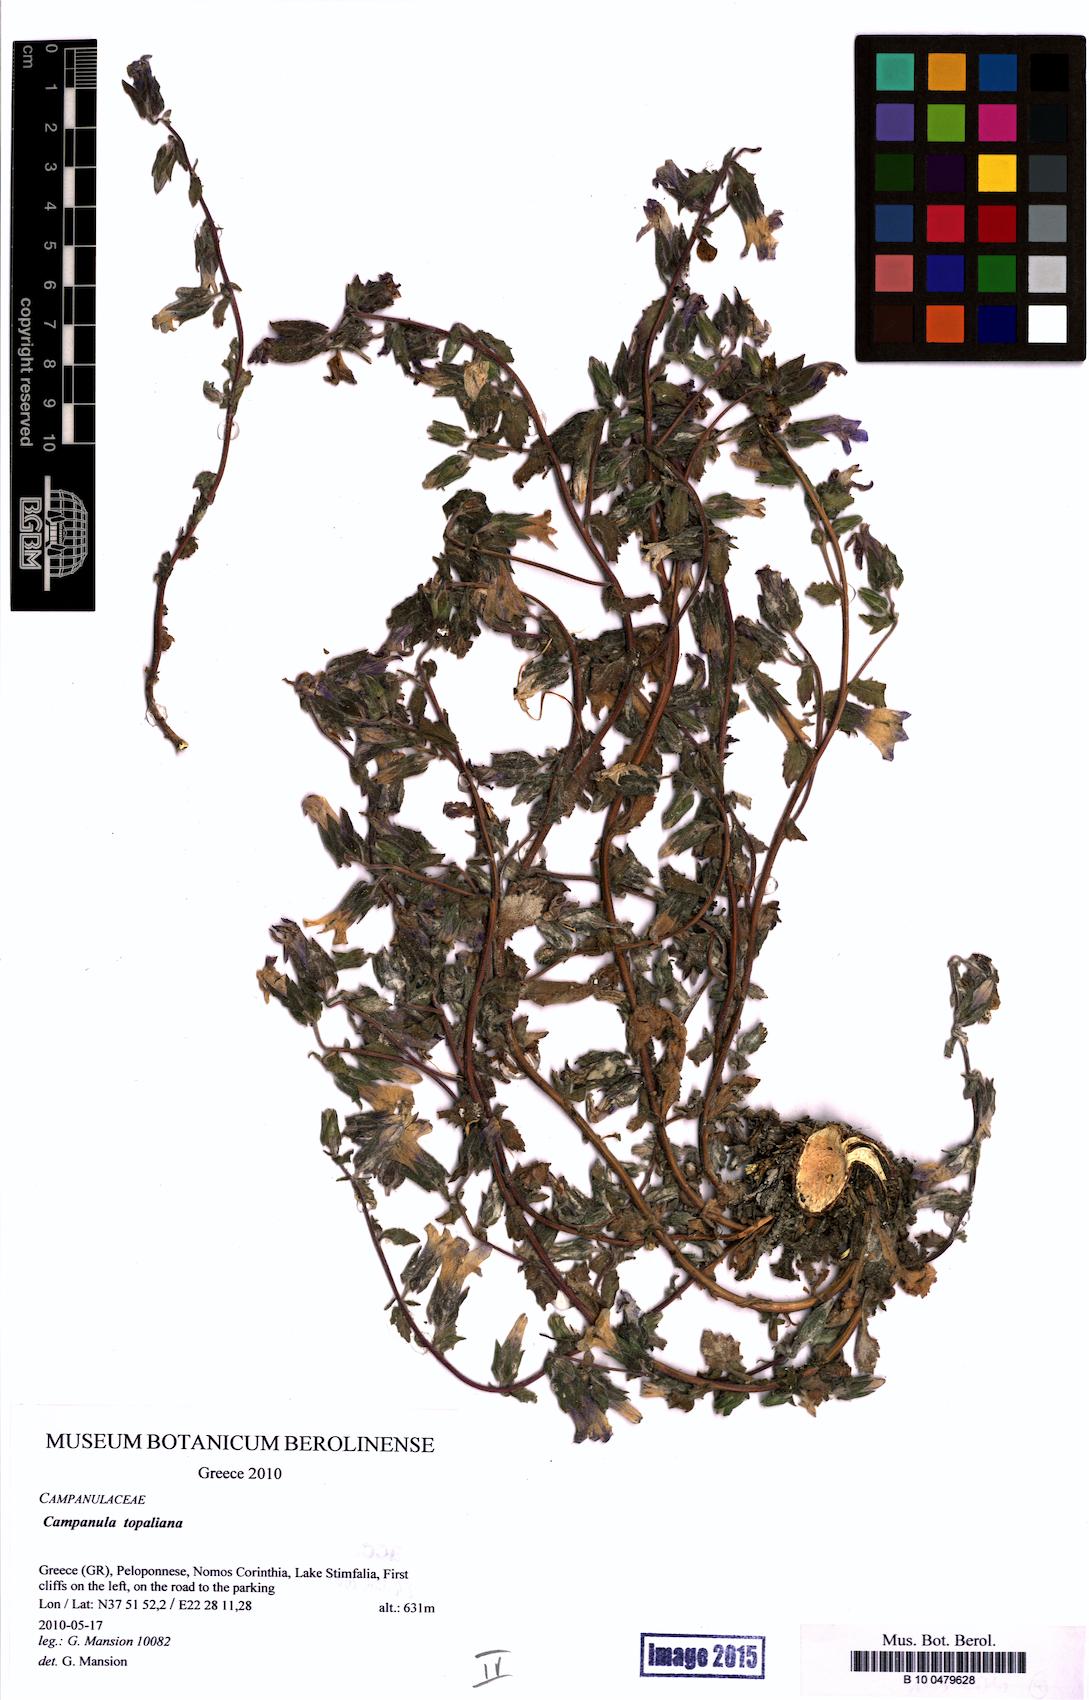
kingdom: Plantae
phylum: Tracheophyta
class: Magnoliopsida
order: Asterales
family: Campanulaceae
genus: Campanula
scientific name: Campanula topaliana
